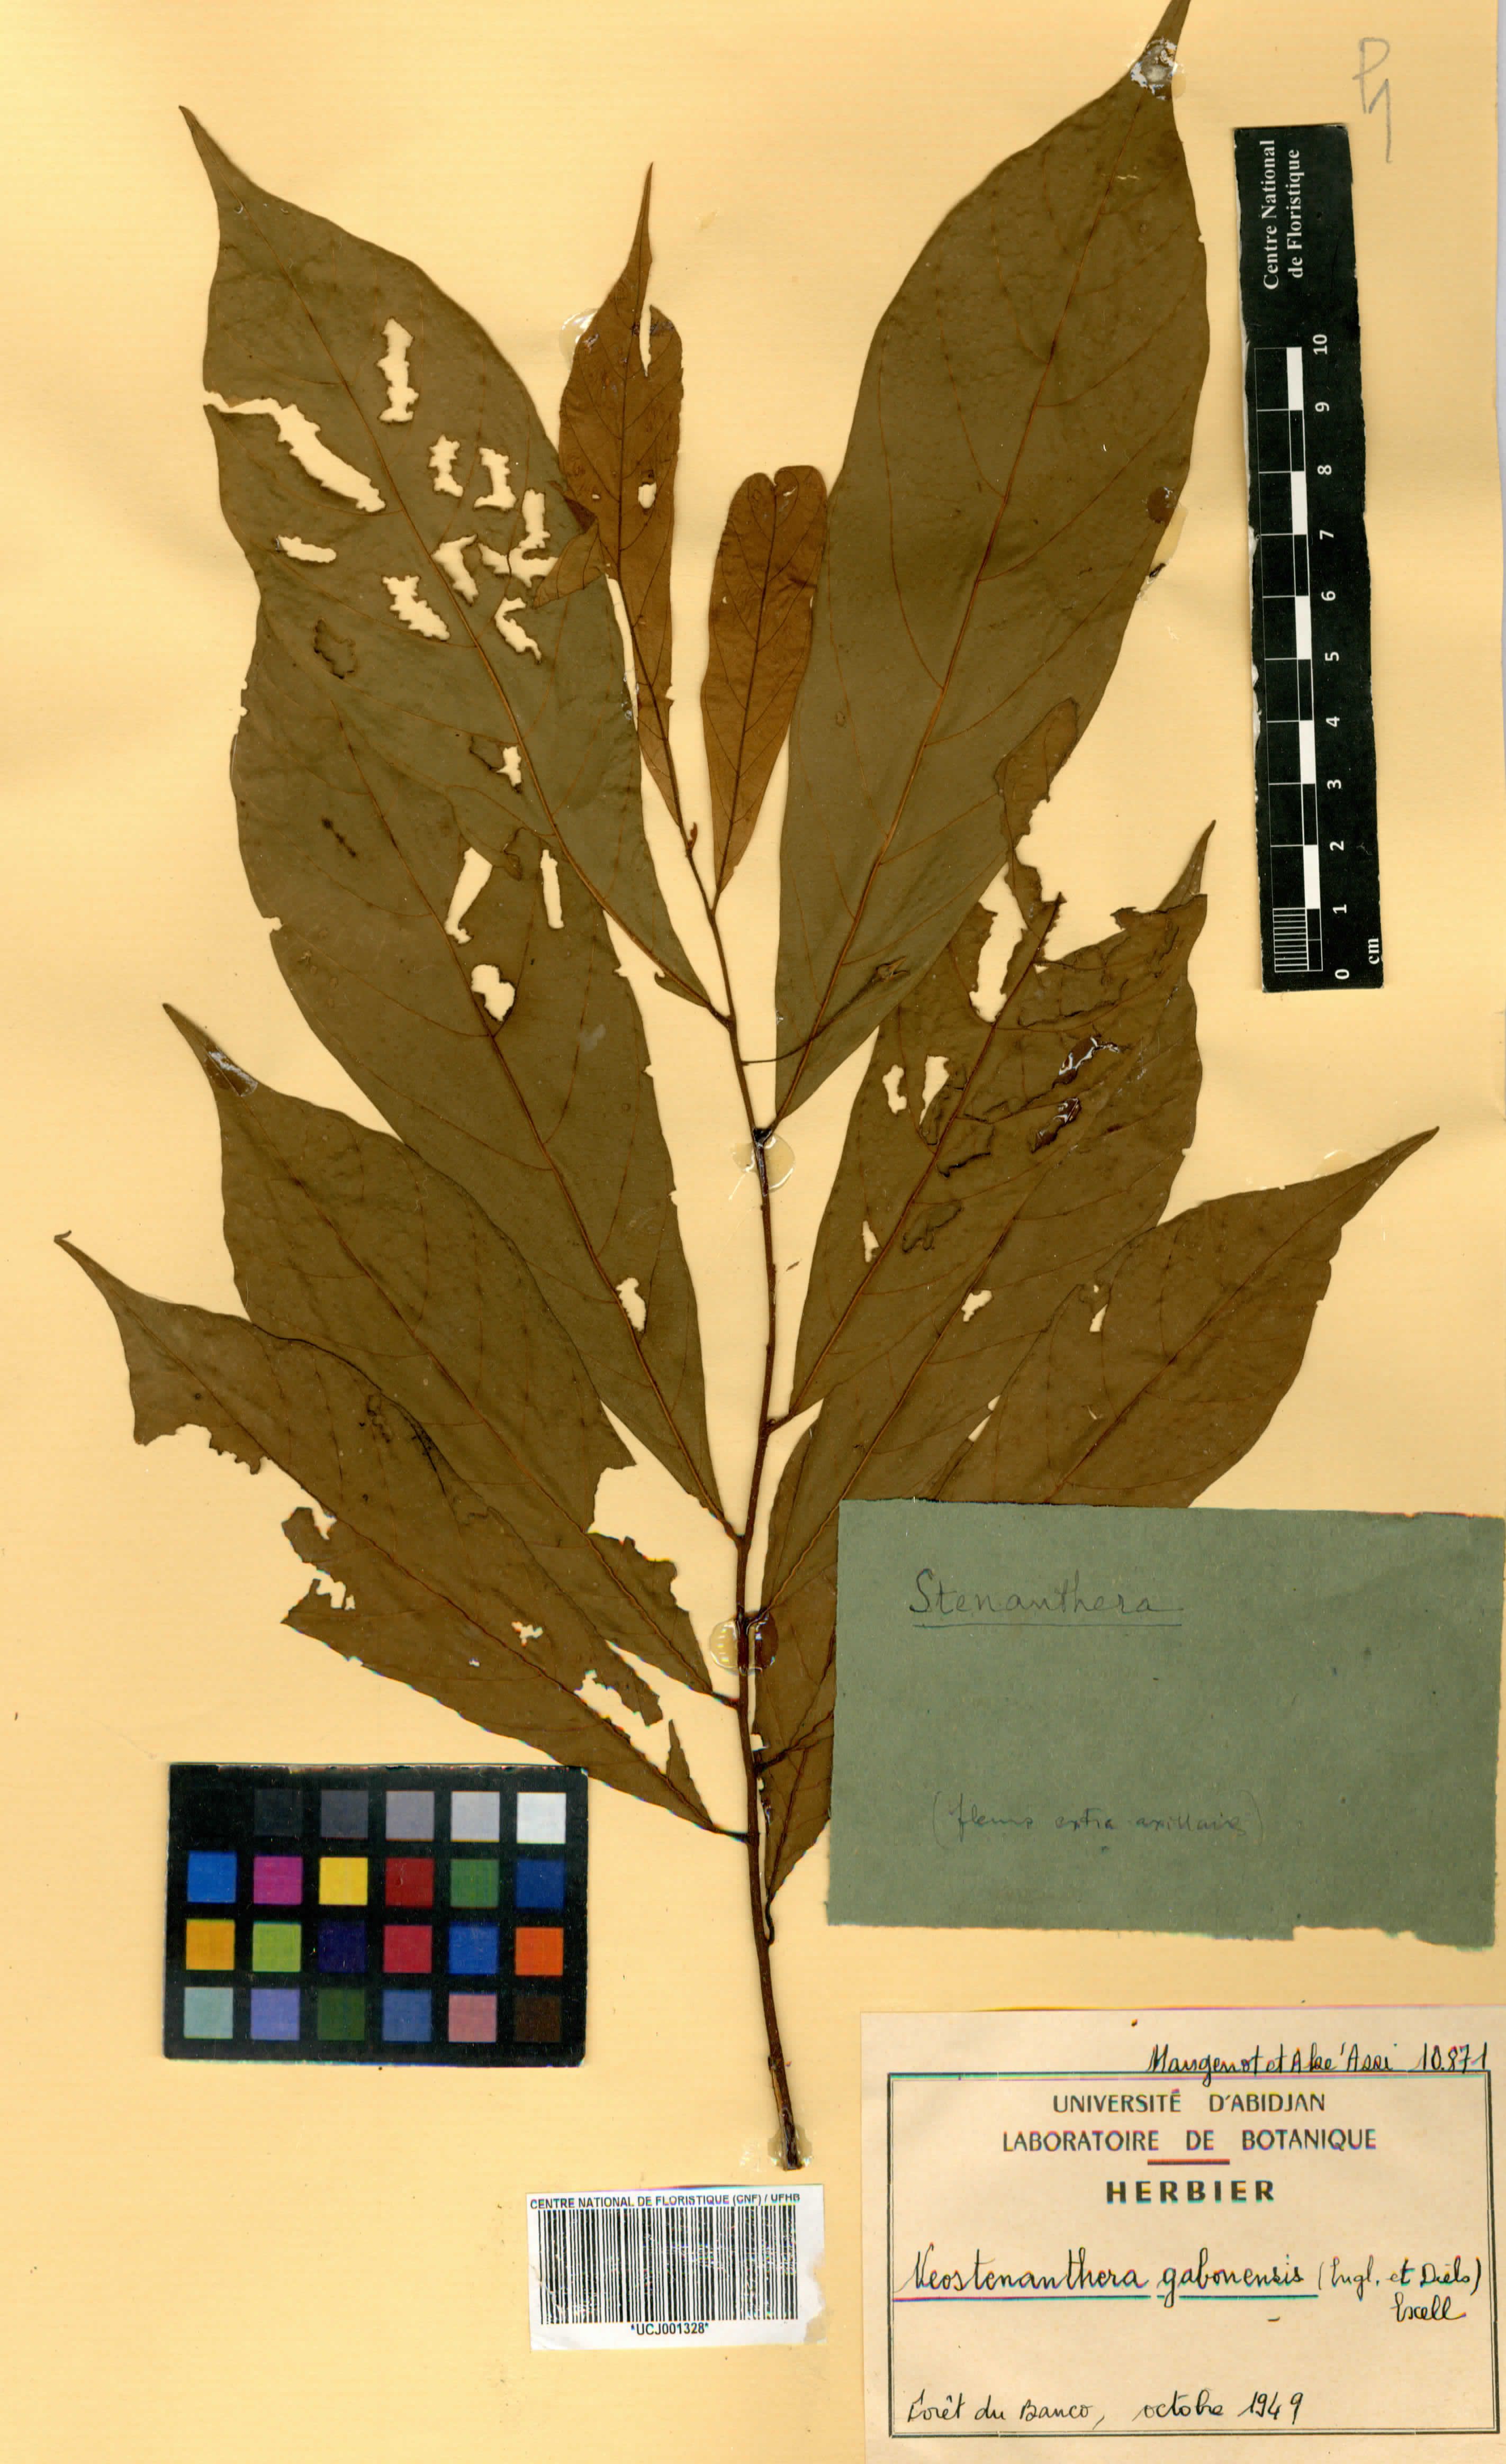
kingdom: Plantae
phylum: Tracheophyta
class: Magnoliopsida
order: Magnoliales
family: Annonaceae
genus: Neostenanthera
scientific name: Neostenanthera gabonensis
